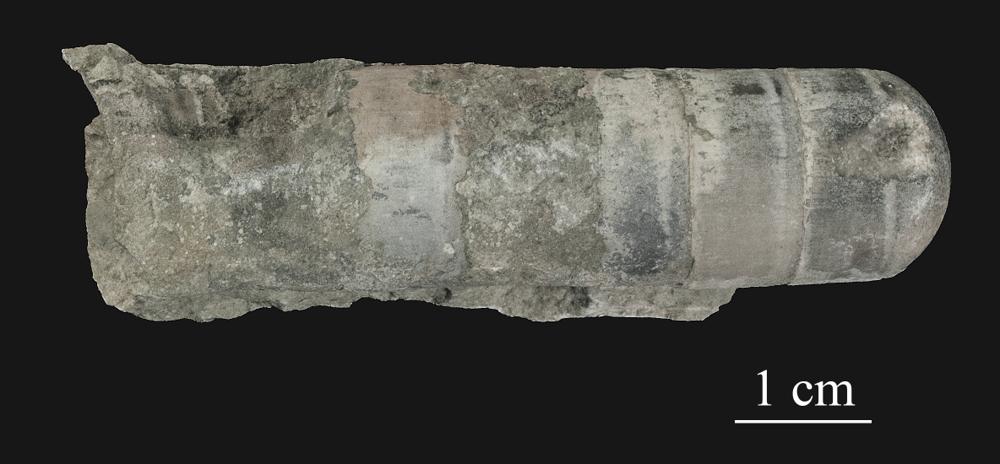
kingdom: Animalia
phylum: Mollusca
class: Cephalopoda
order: Orthocerida
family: Orthoceratidae
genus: Orthoceras
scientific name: Orthoceras
